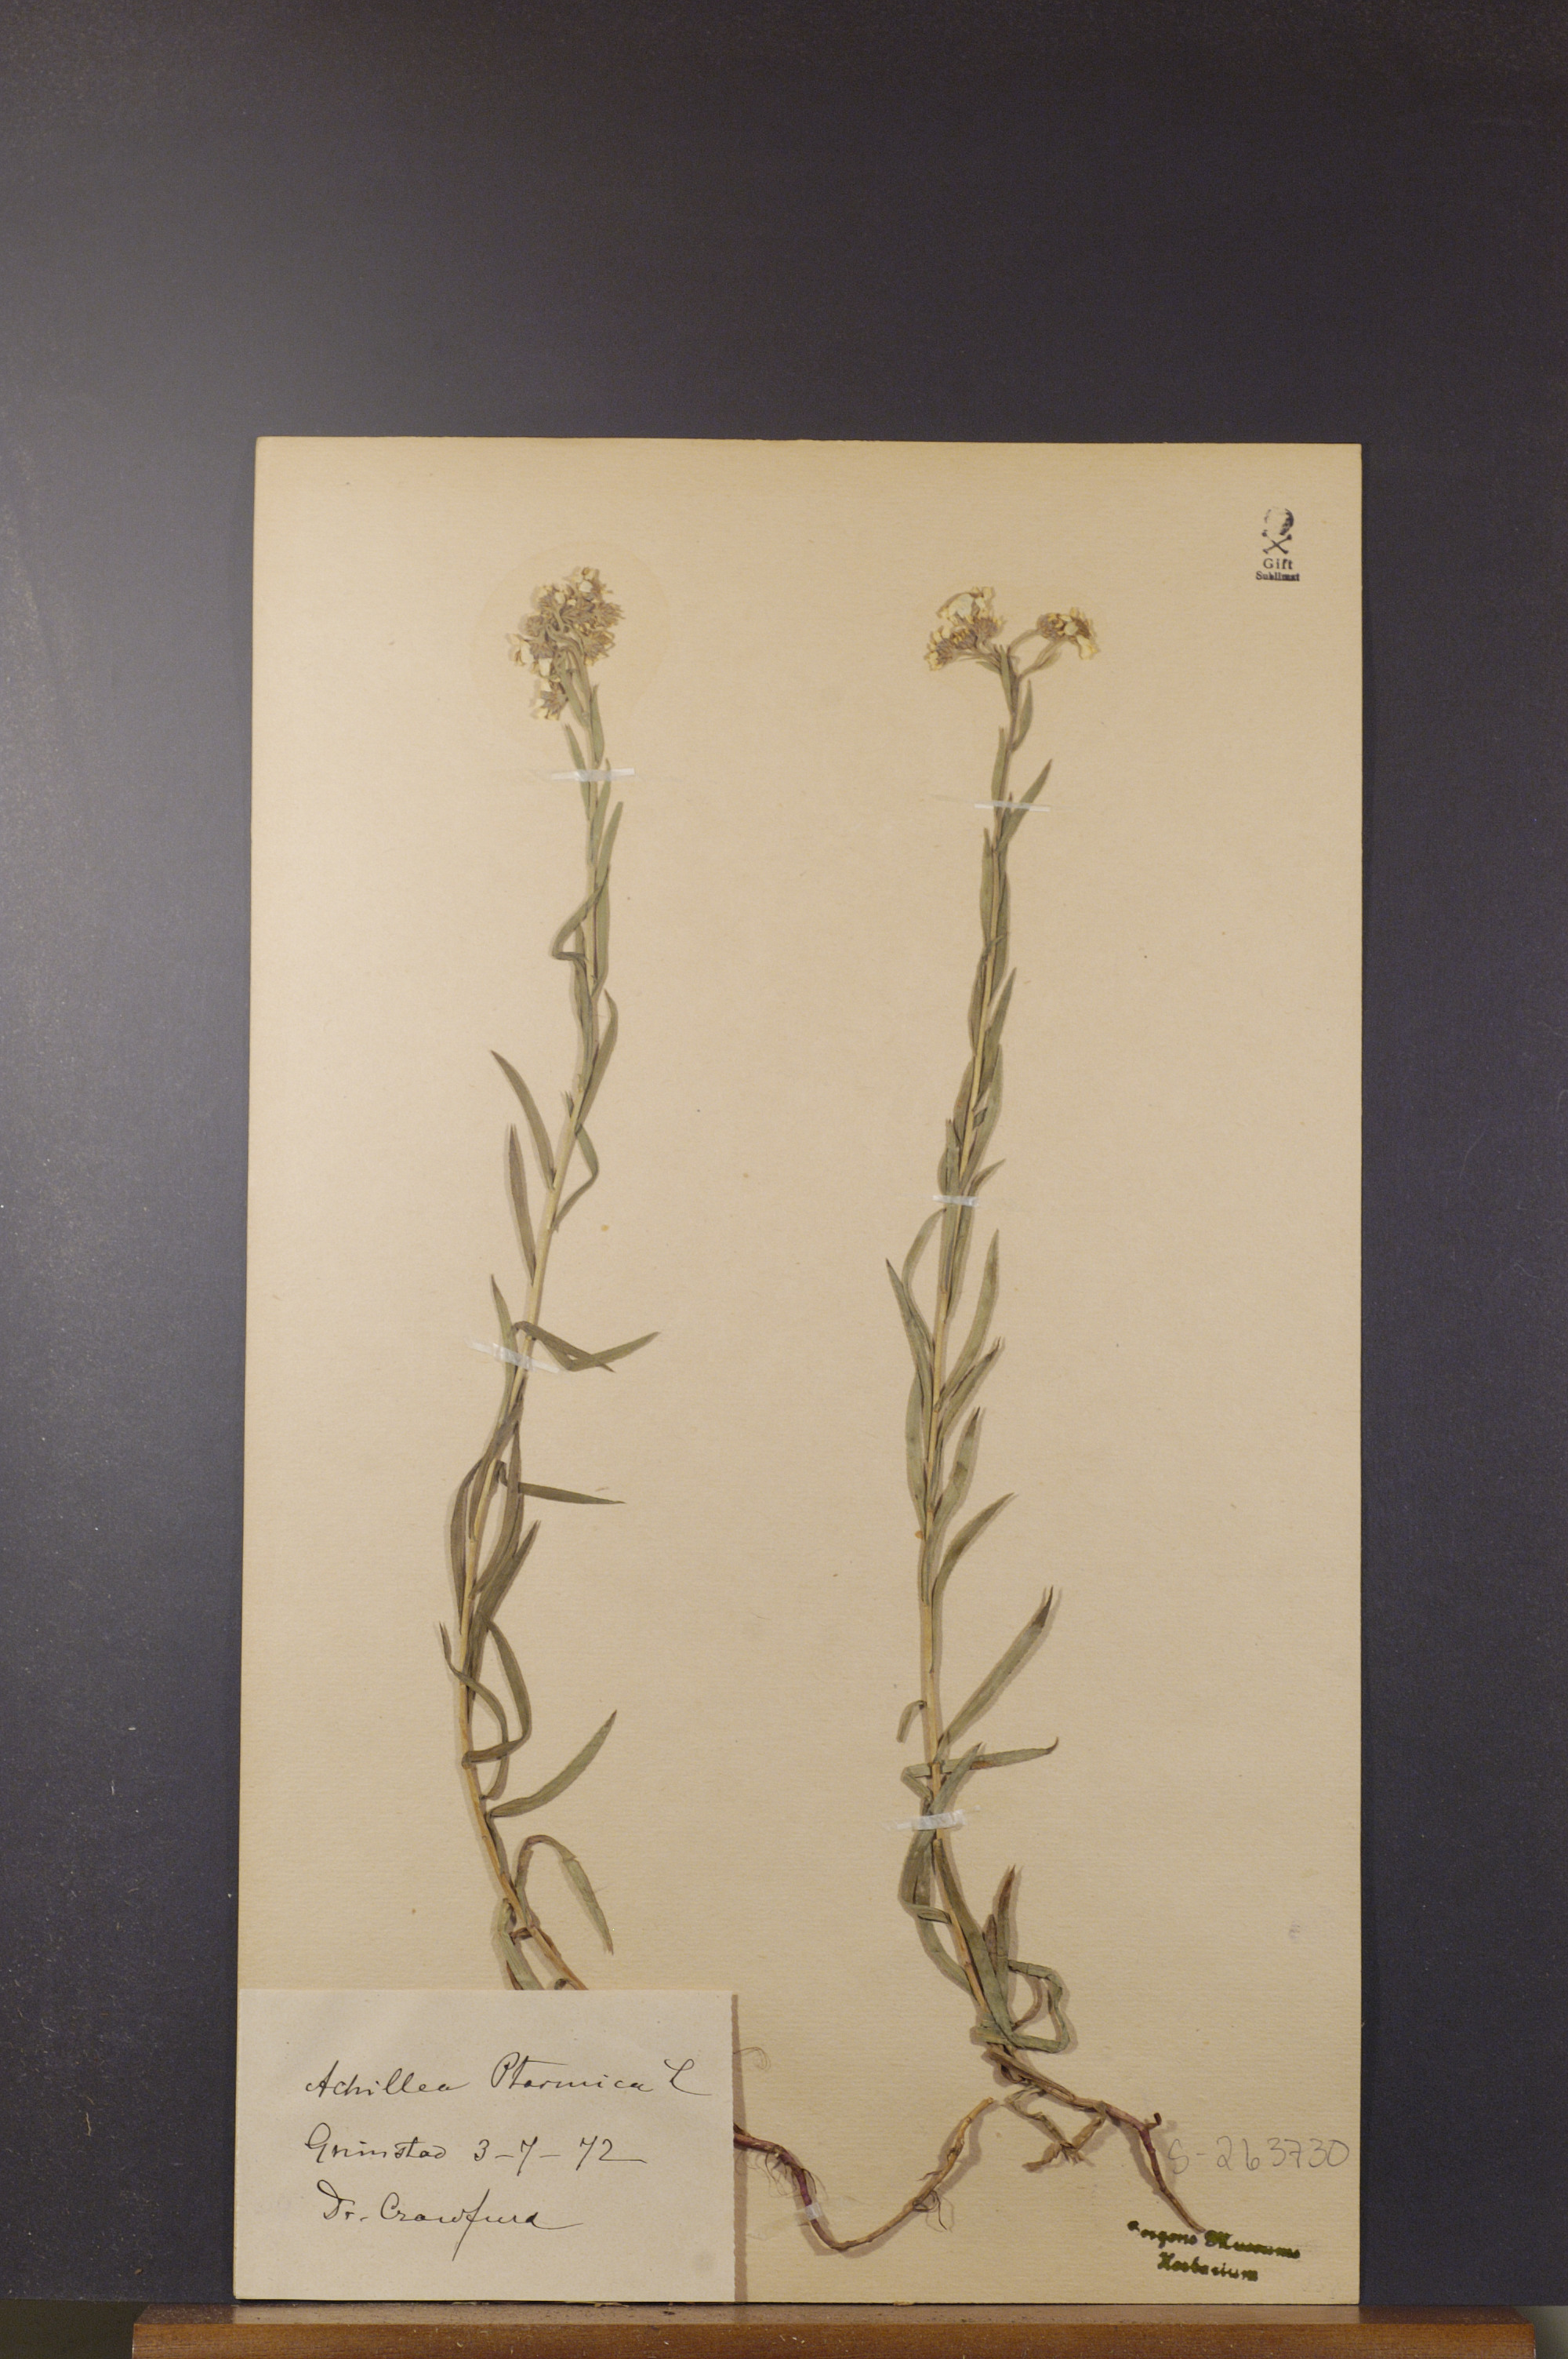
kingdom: Plantae
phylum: Tracheophyta
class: Magnoliopsida
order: Asterales
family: Asteraceae
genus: Achillea
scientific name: Achillea ptarmica
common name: Sneezeweed
